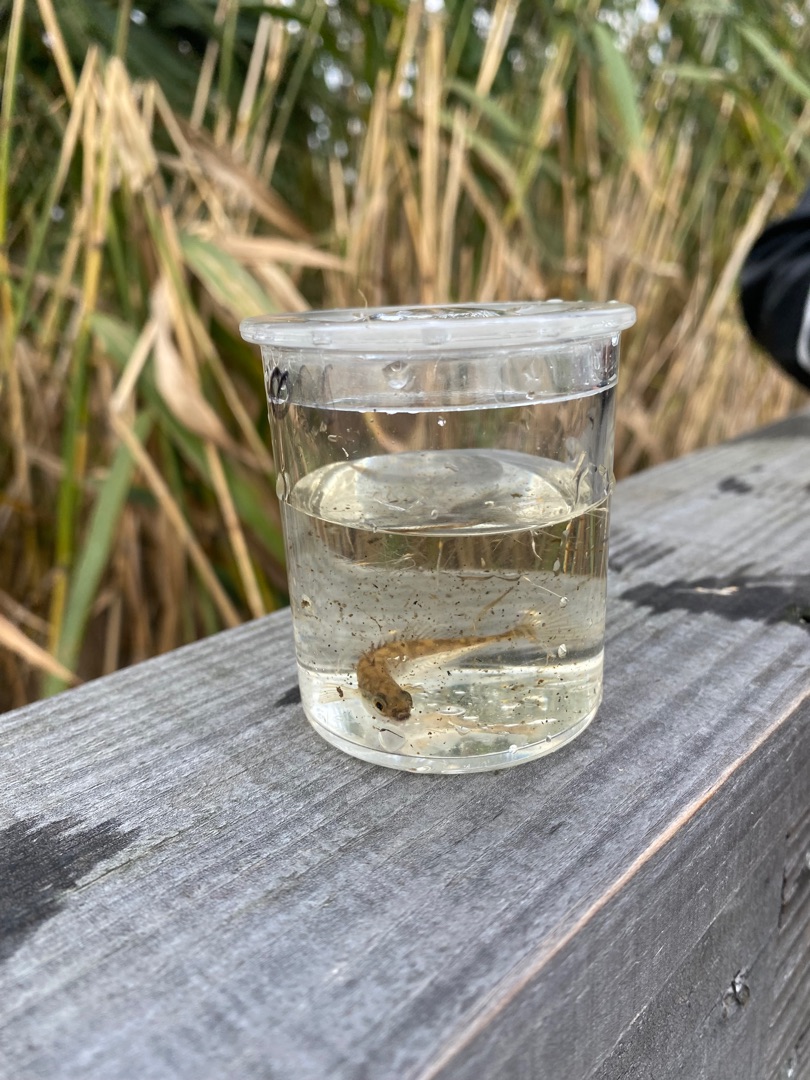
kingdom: Animalia
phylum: Chordata
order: Gasterosteiformes
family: Gasterosteidae
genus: Pungitius
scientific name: Pungitius pungitius
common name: Nipigget hundestejle
